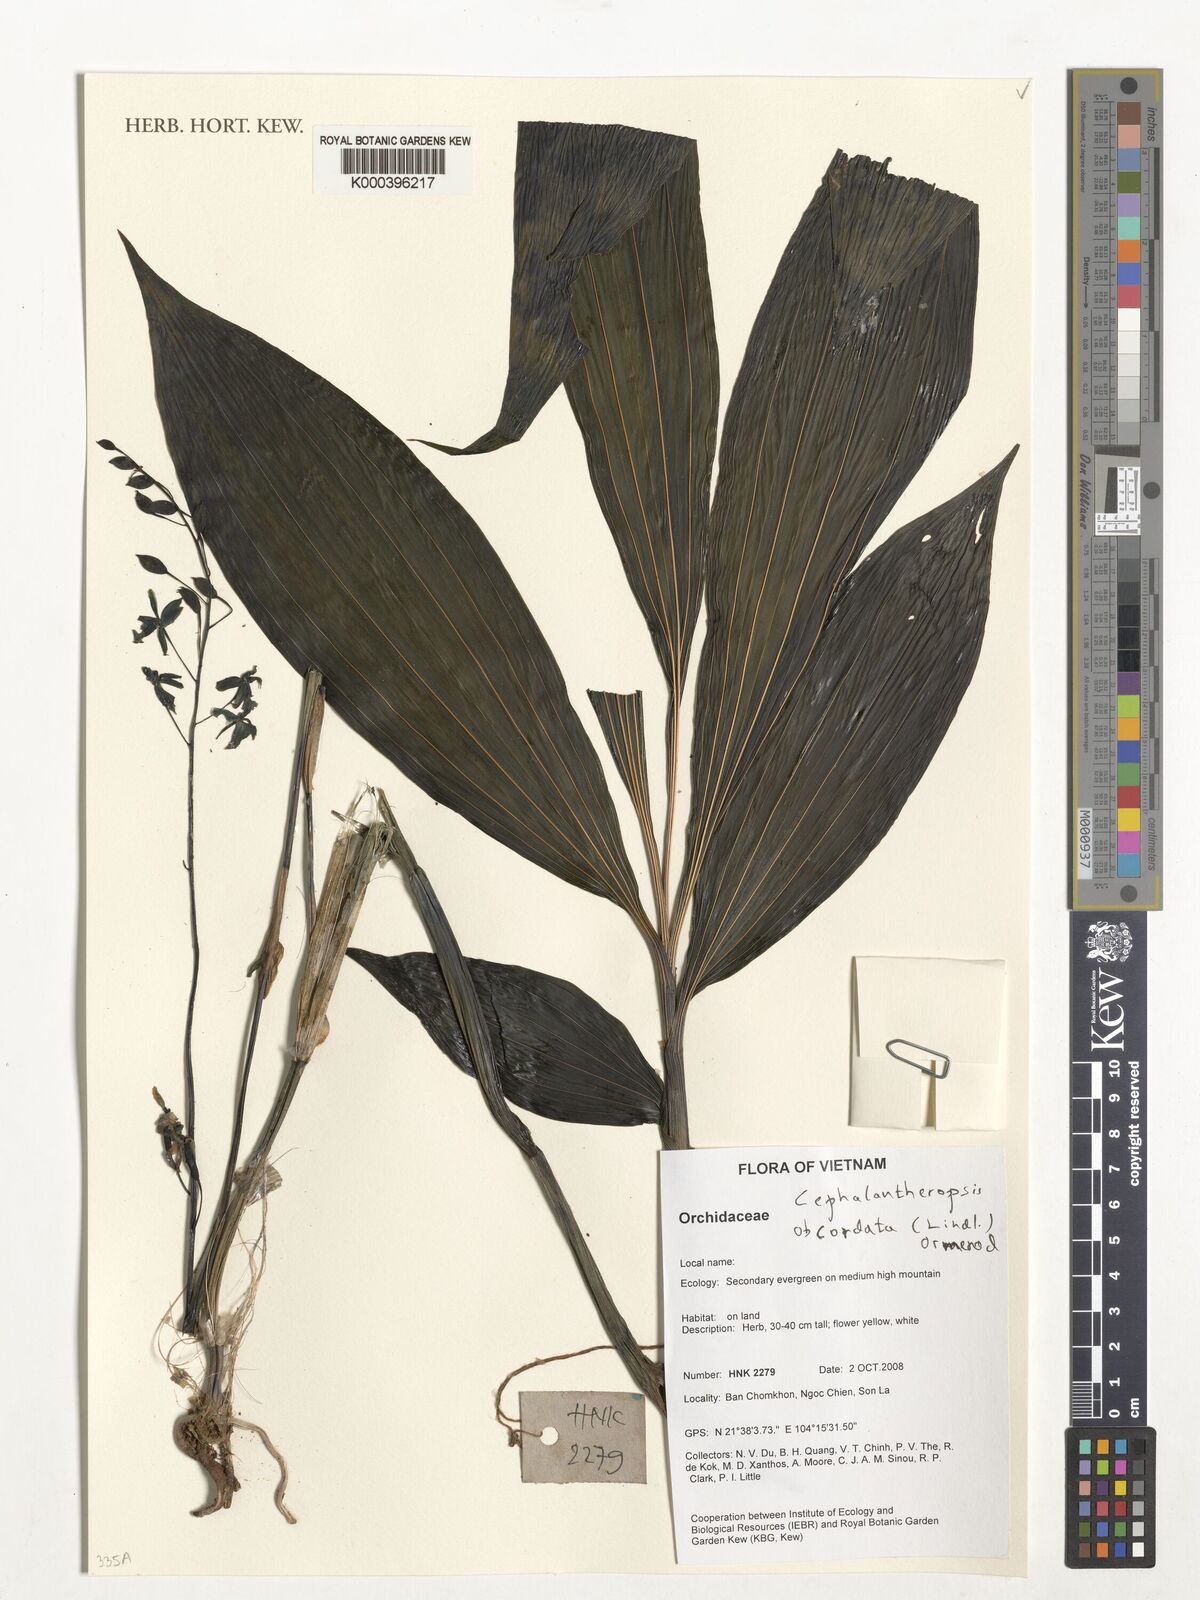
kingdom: Plantae
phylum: Tracheophyta
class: Liliopsida
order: Asparagales
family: Orchidaceae
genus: Calanthe
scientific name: Calanthe obcordata
